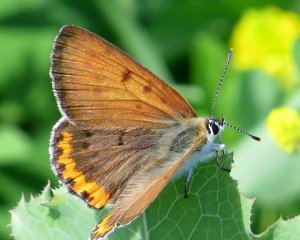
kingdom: Animalia
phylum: Arthropoda
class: Insecta
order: Lepidoptera
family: Sesiidae
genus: Sesia
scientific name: Sesia Lycaena hyllus
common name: Bronze Copper
